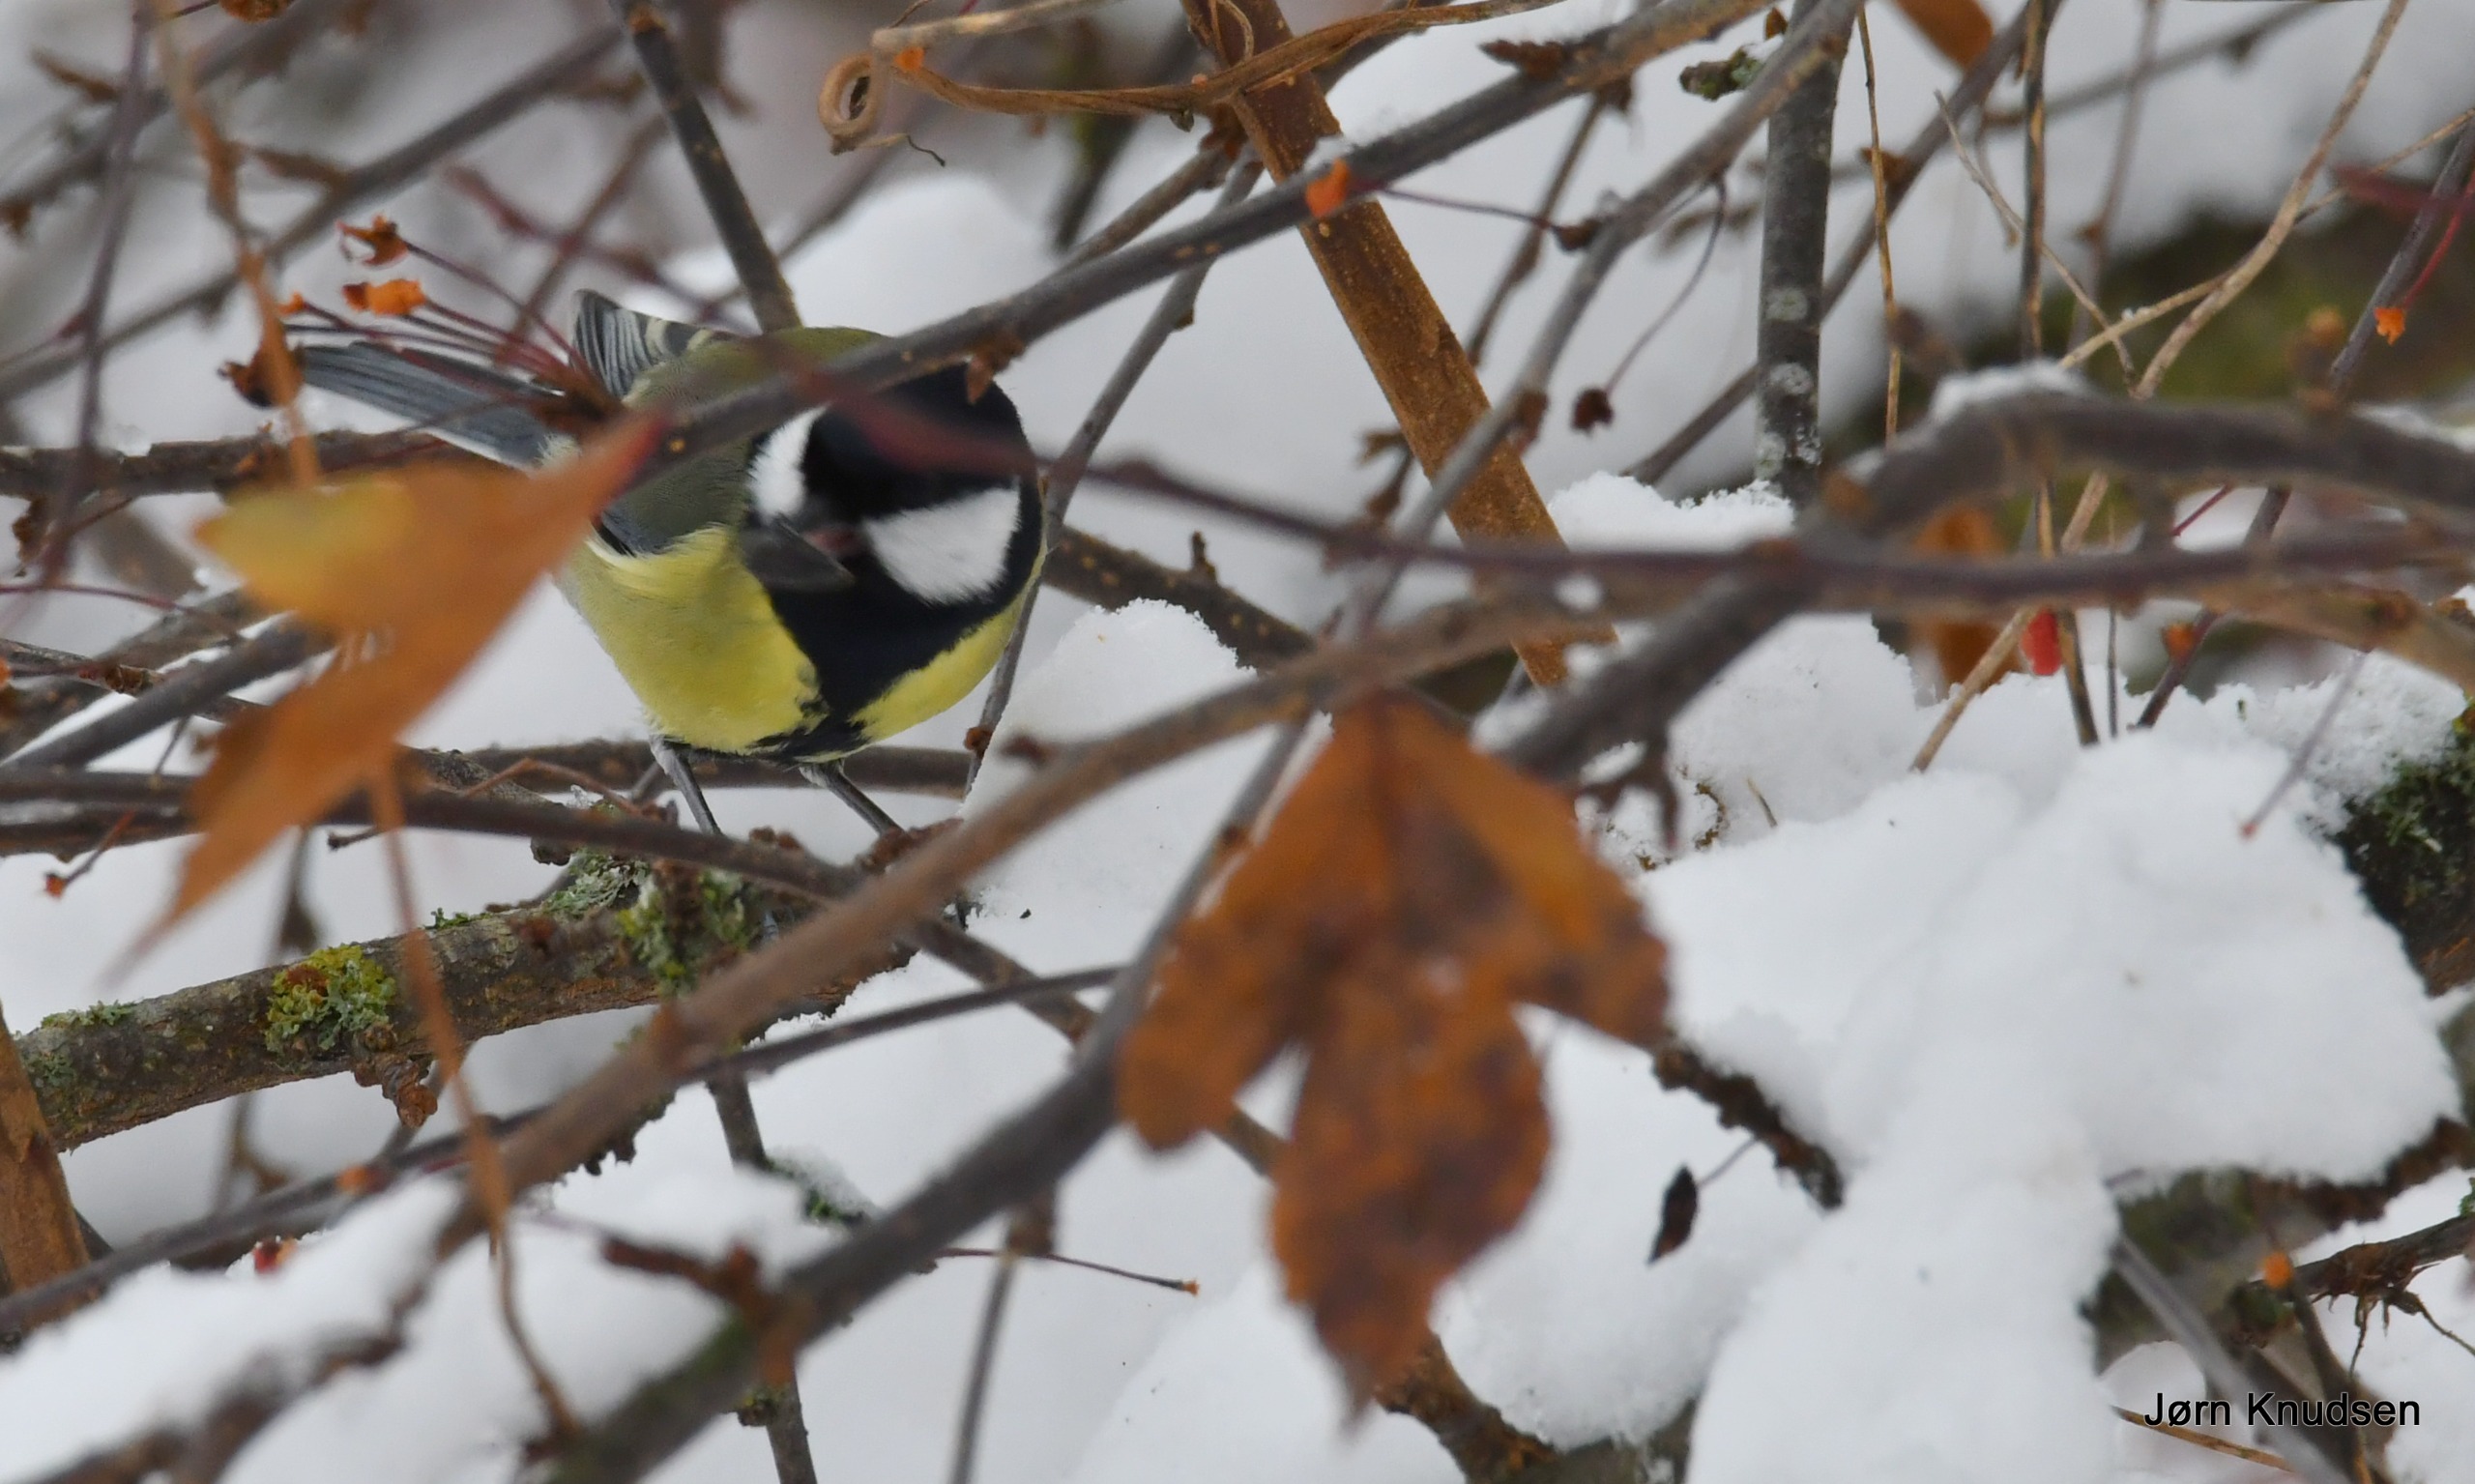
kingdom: Animalia
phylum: Chordata
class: Aves
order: Passeriformes
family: Paridae
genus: Parus
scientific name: Parus major
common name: Musvit
